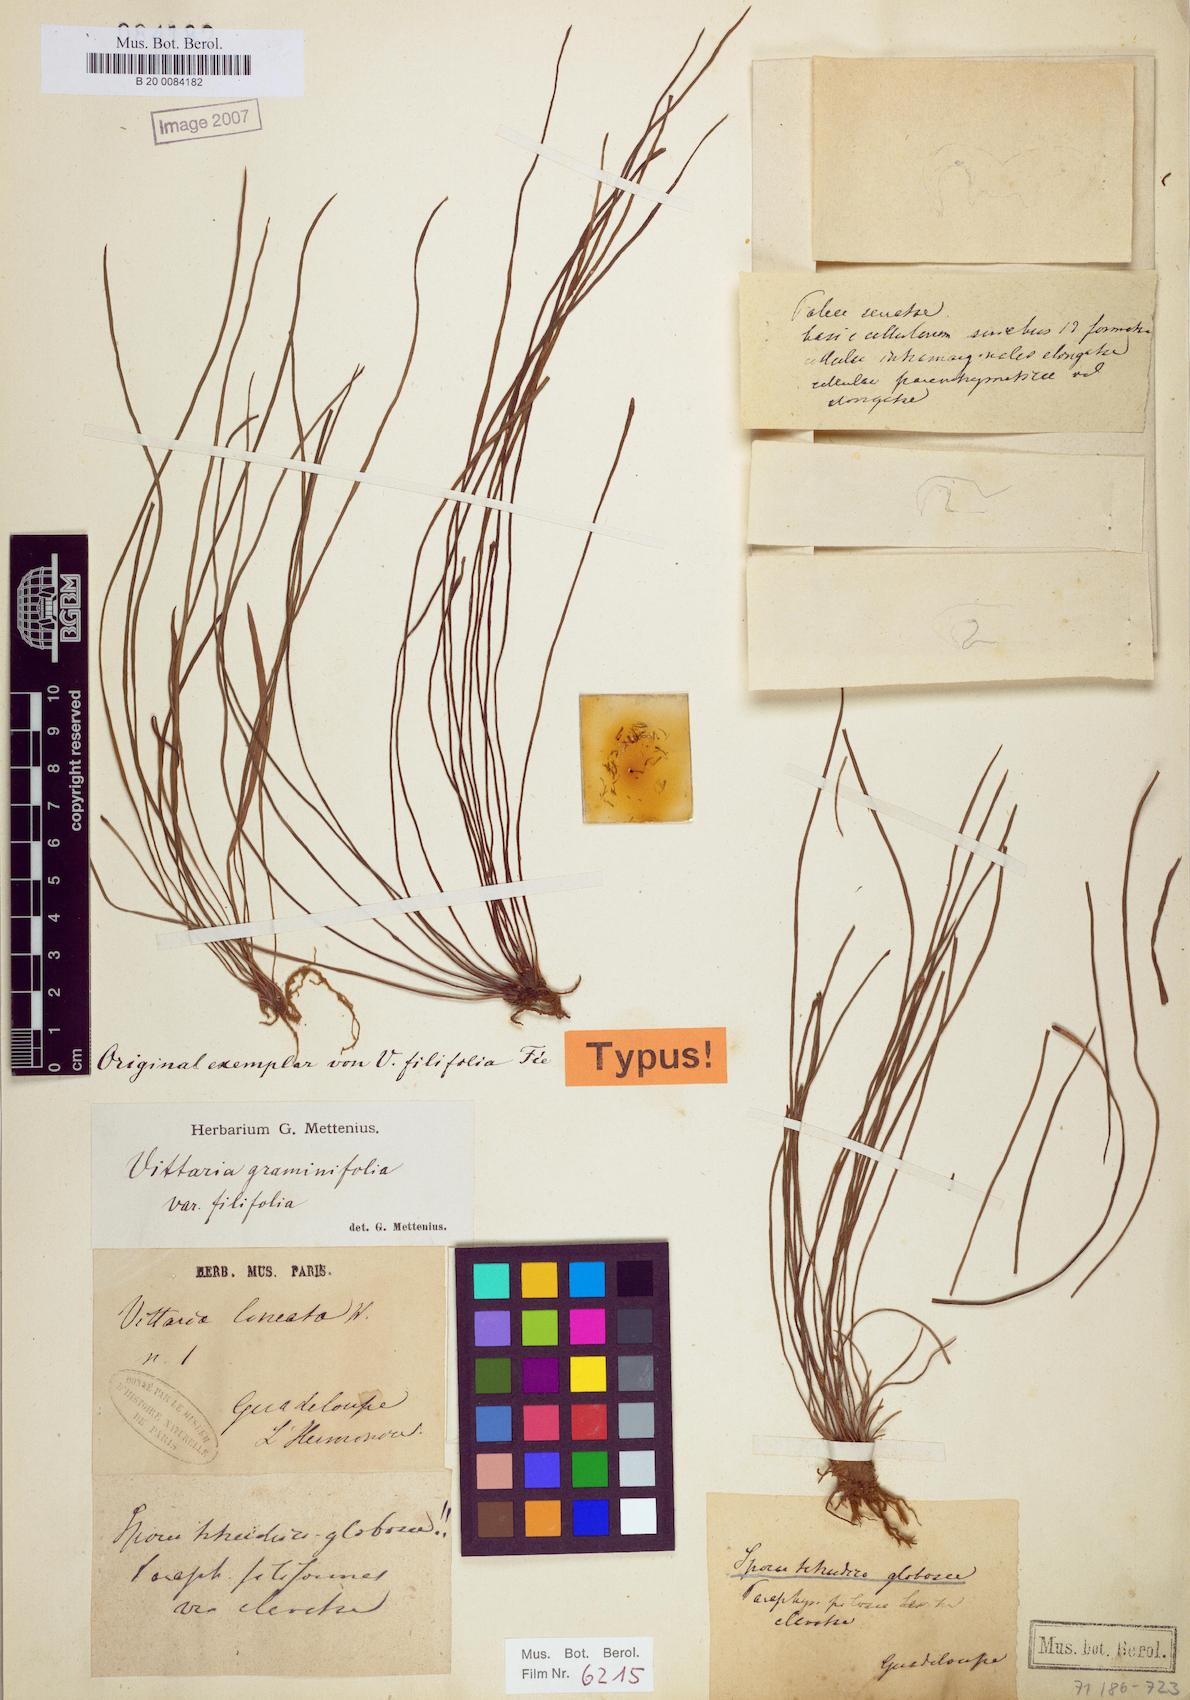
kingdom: Plantae
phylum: Tracheophyta
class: Polypodiopsida
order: Polypodiales
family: Pteridaceae
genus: Vittaria
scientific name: Vittaria graminifolia
